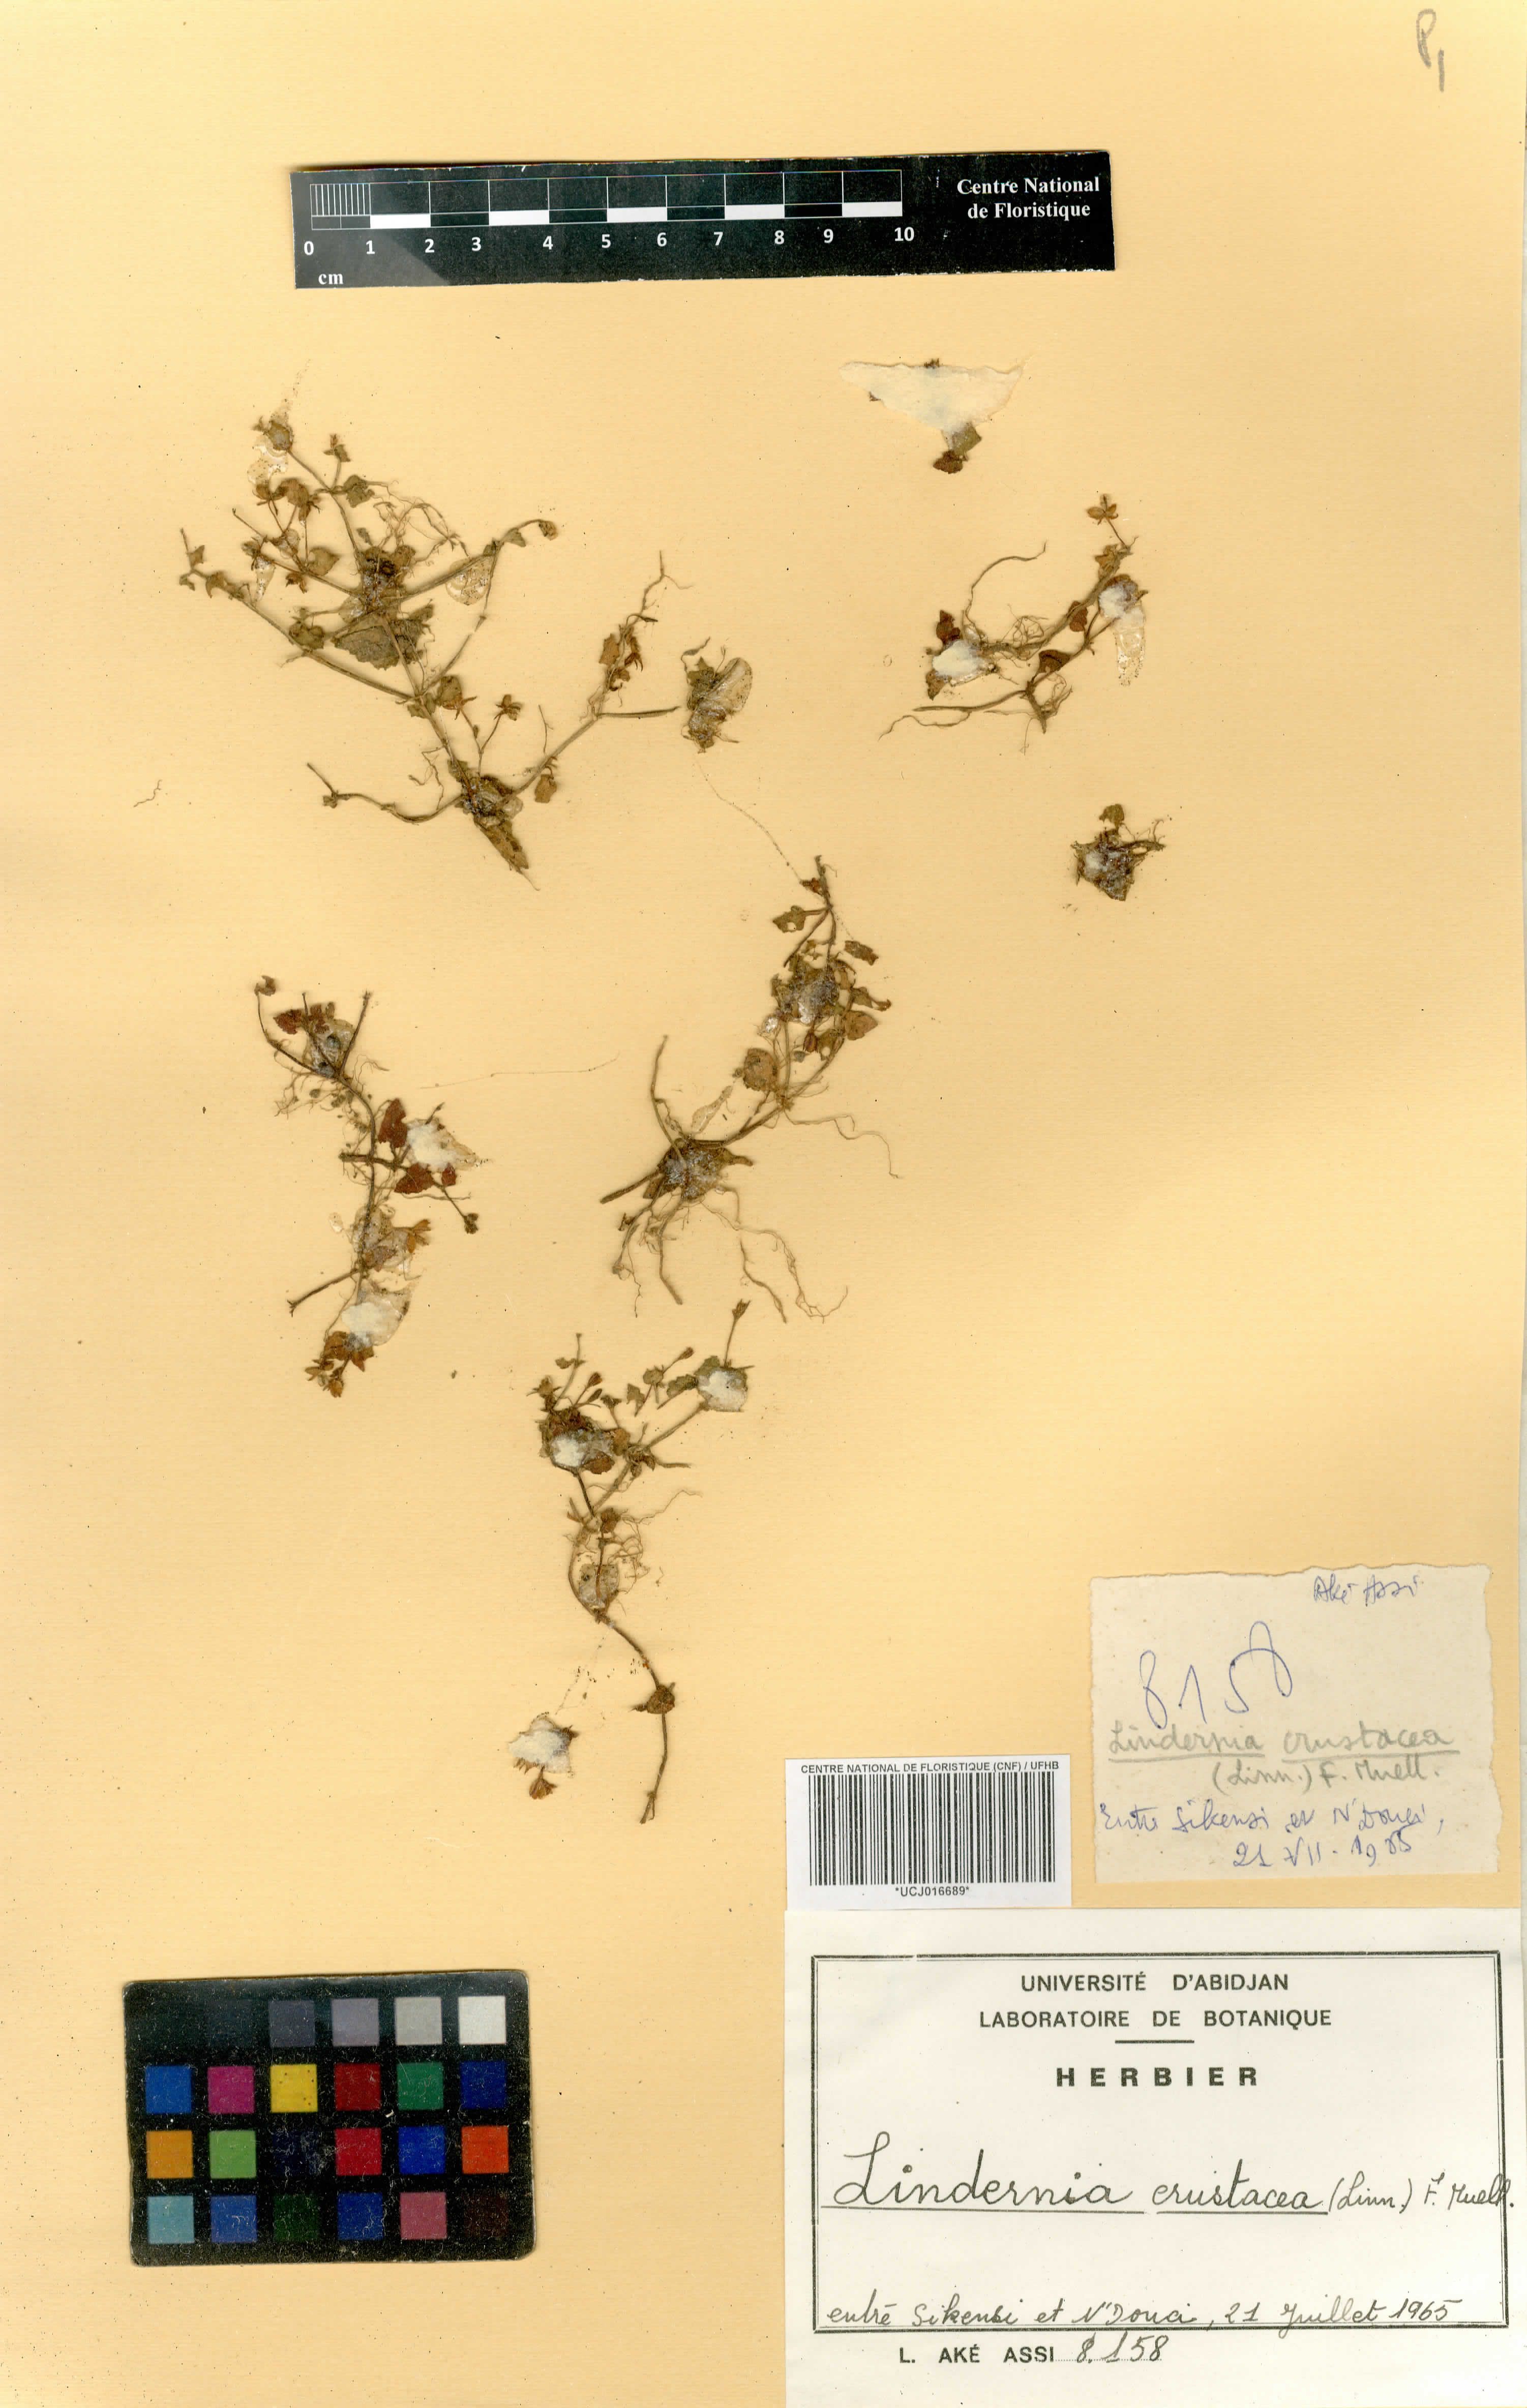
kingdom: Plantae
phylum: Tracheophyta
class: Magnoliopsida
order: Lamiales
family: Linderniaceae
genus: Torenia
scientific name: Torenia crustacea
